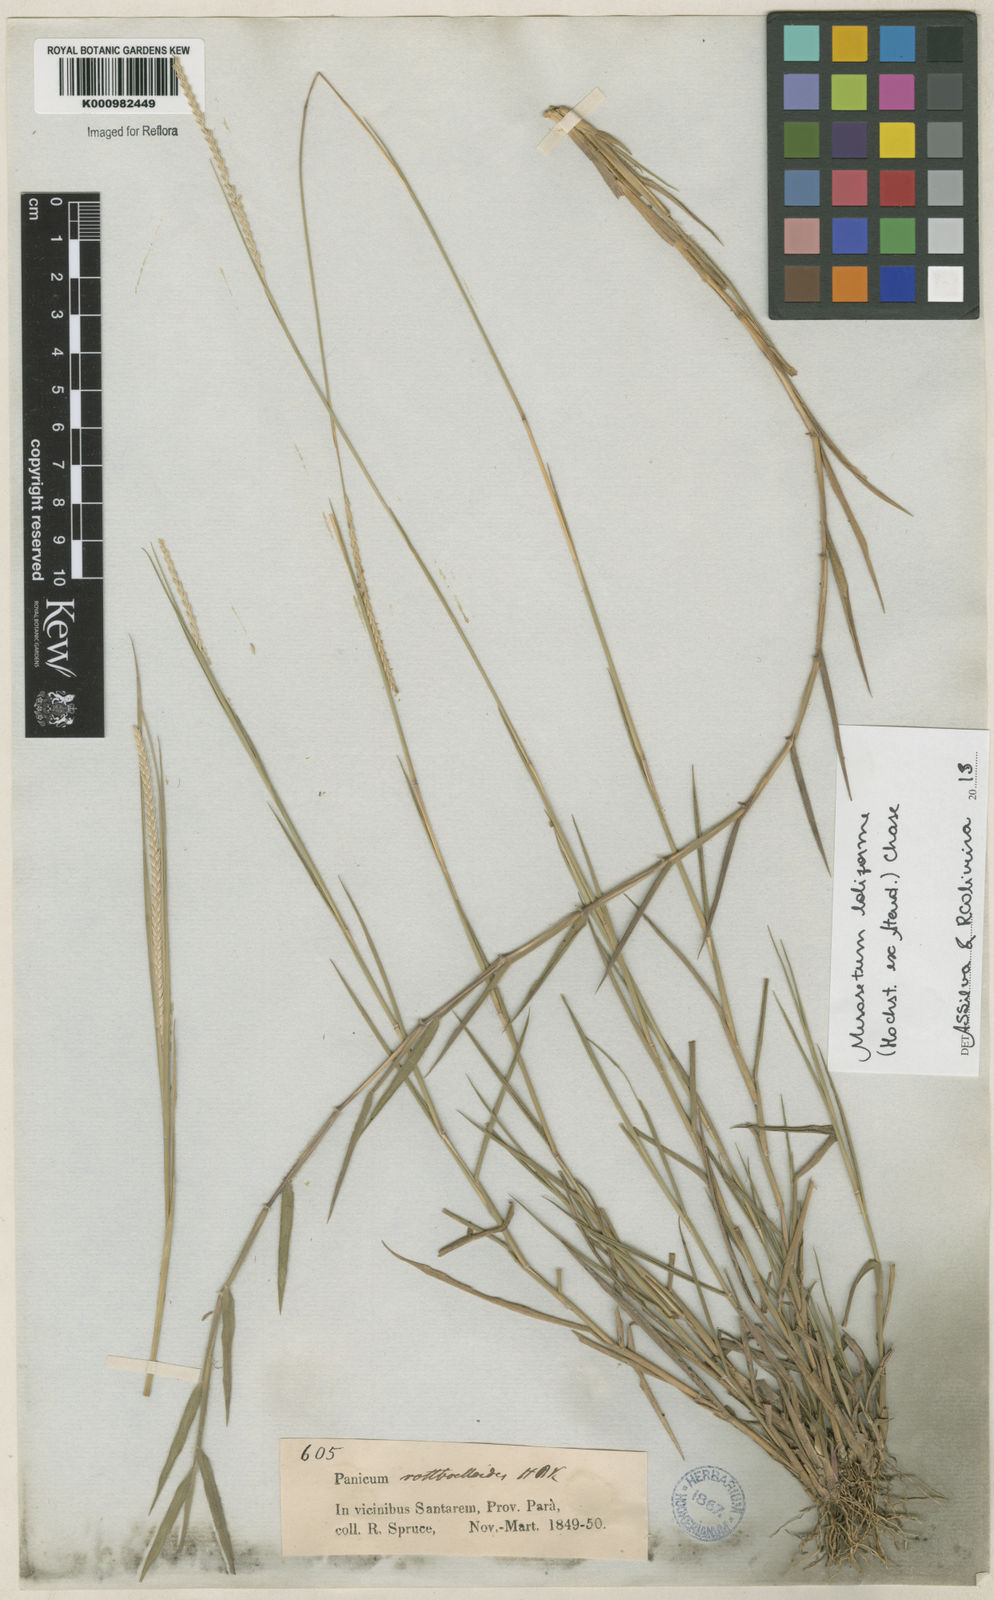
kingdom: Plantae
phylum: Tracheophyta
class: Liliopsida
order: Poales
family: Poaceae
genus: Mesosetum
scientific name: Mesosetum
